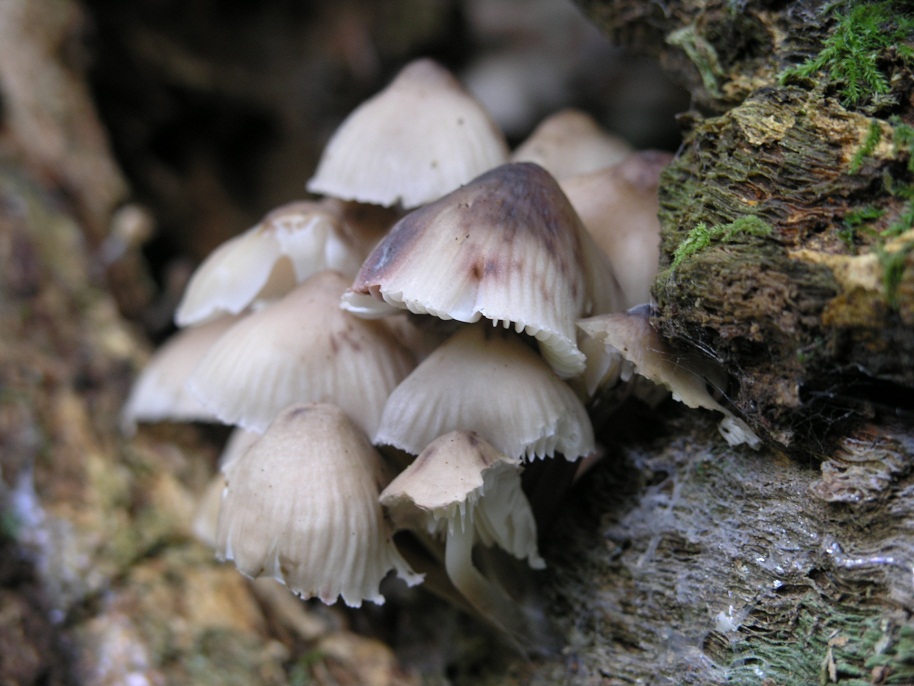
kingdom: Fungi
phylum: Basidiomycota
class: Agaricomycetes
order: Agaricales
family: Mycenaceae
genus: Mycena
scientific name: Mycena inclinata
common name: nikkende huesvamp
